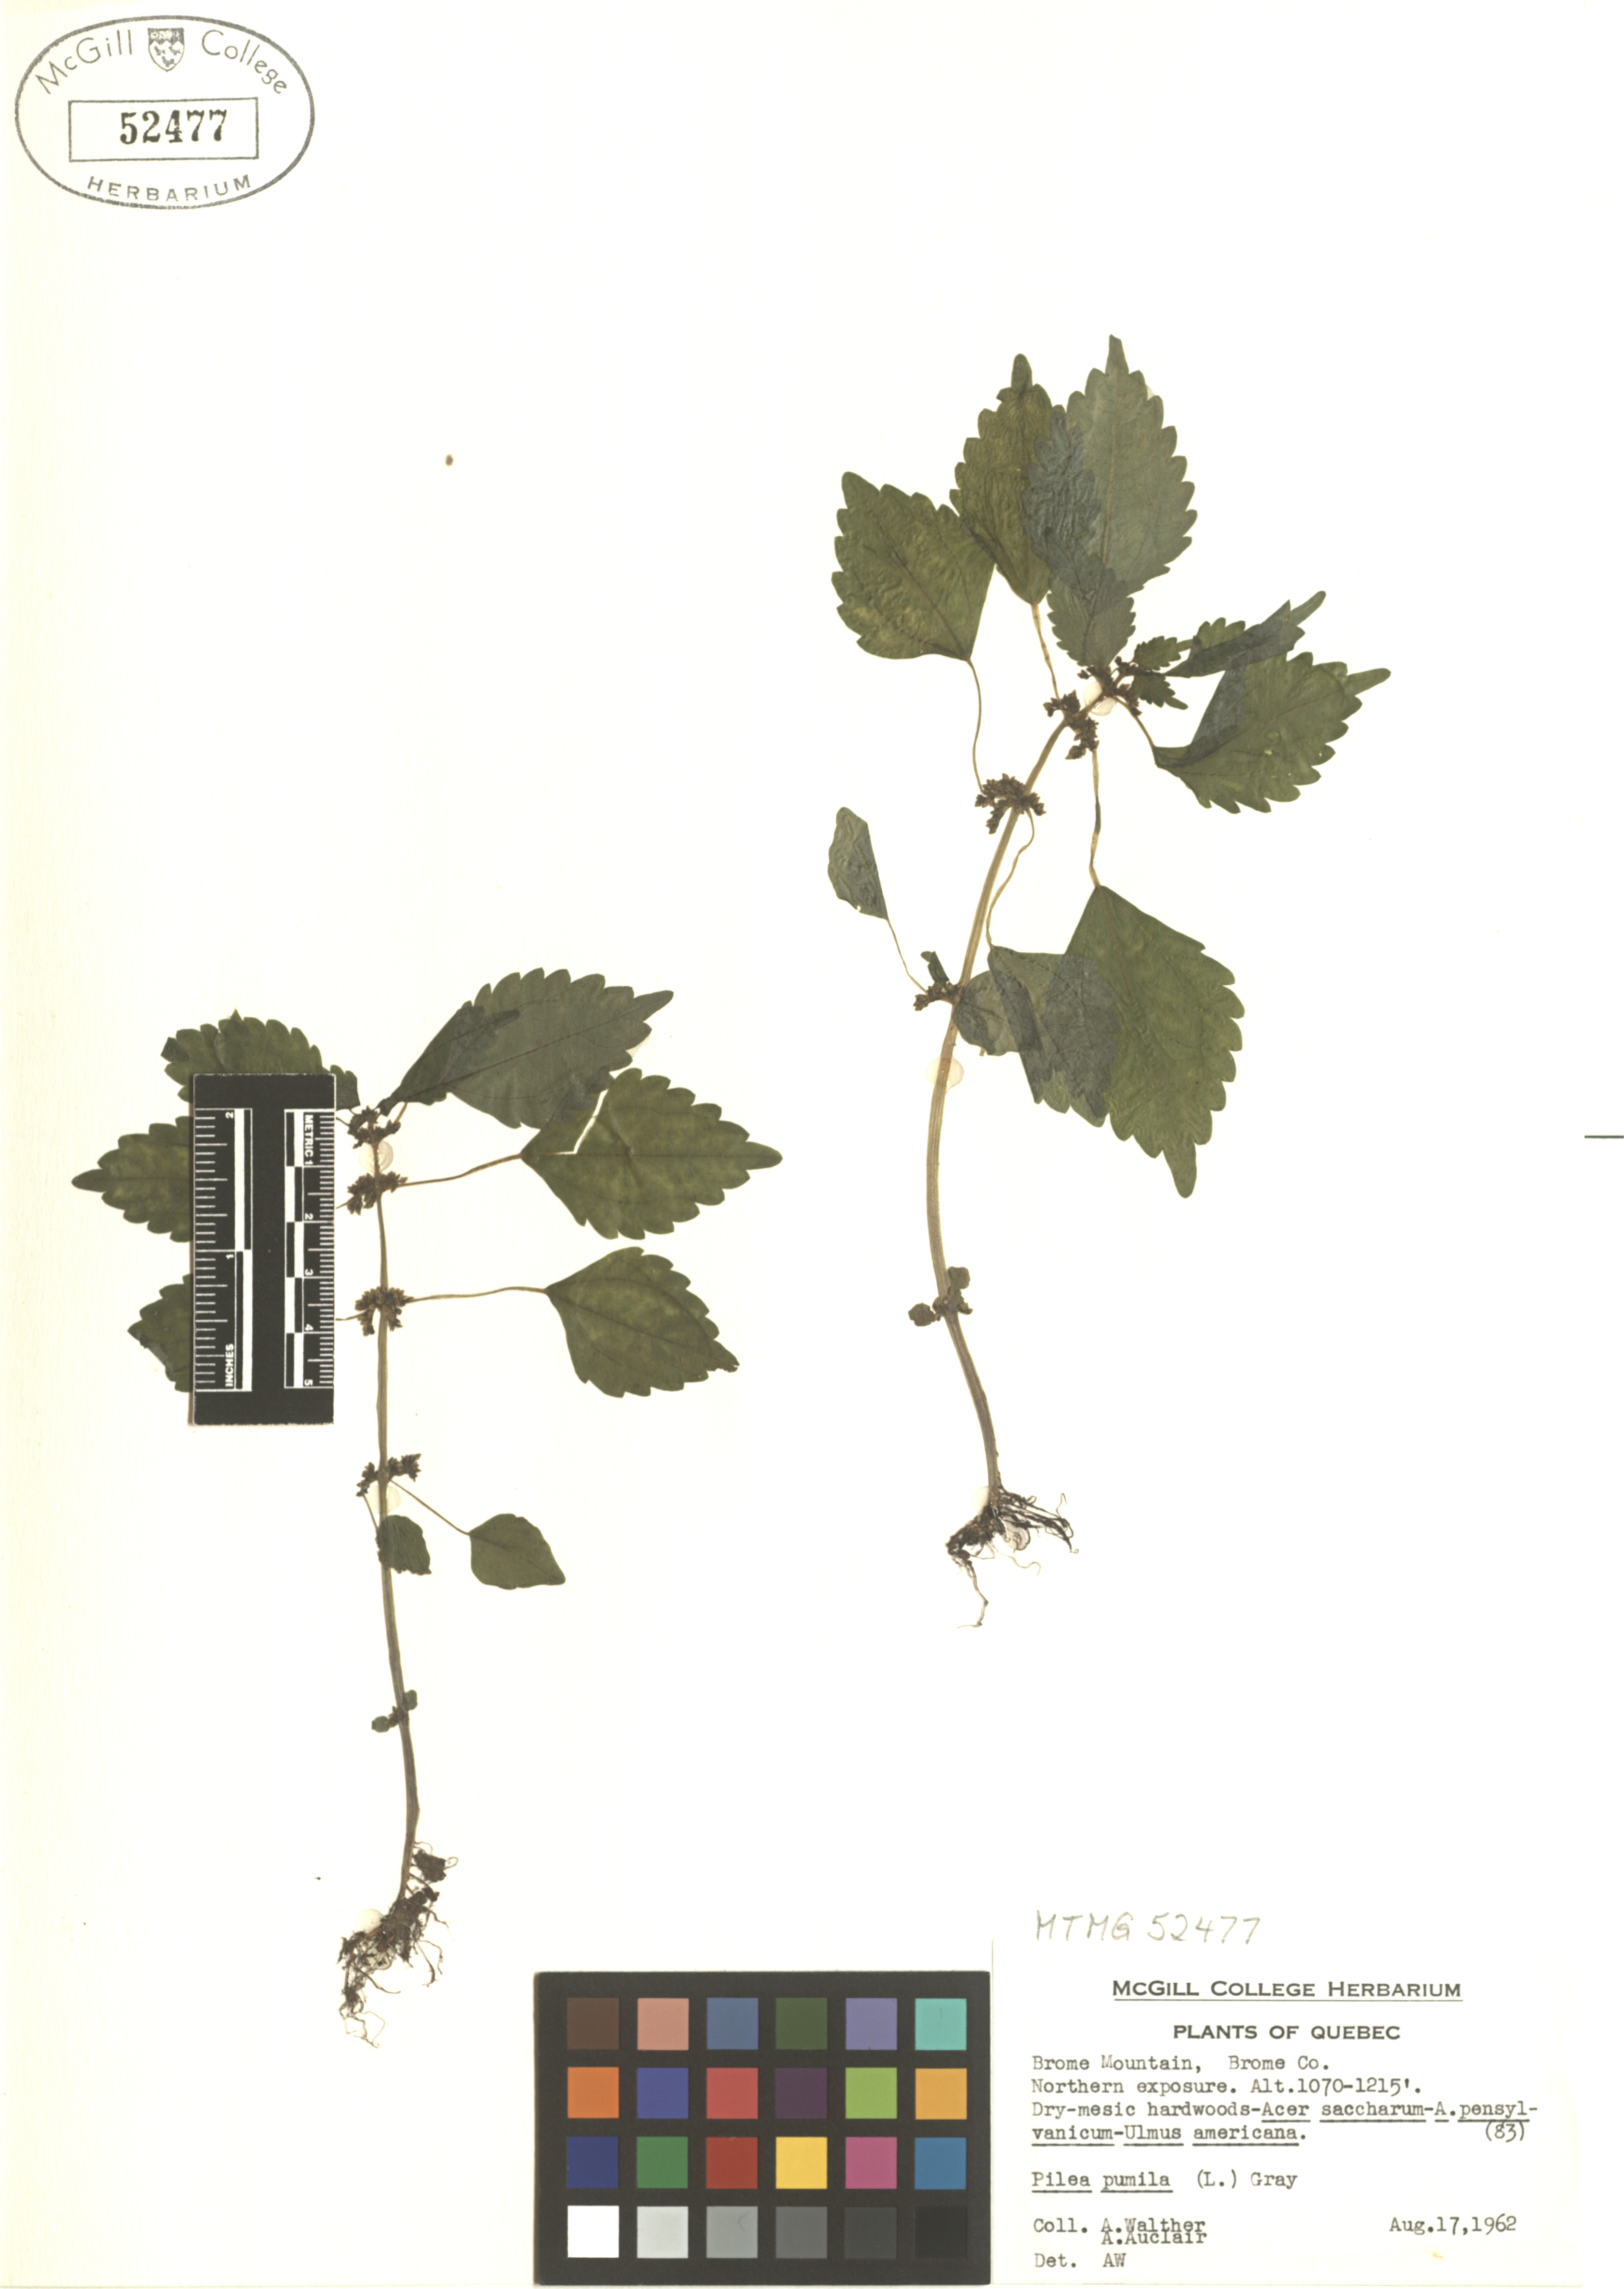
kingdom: Plantae
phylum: Tracheophyta
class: Magnoliopsida
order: Rosales
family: Urticaceae
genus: Pilea
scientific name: Pilea pumila
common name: Clearweed
